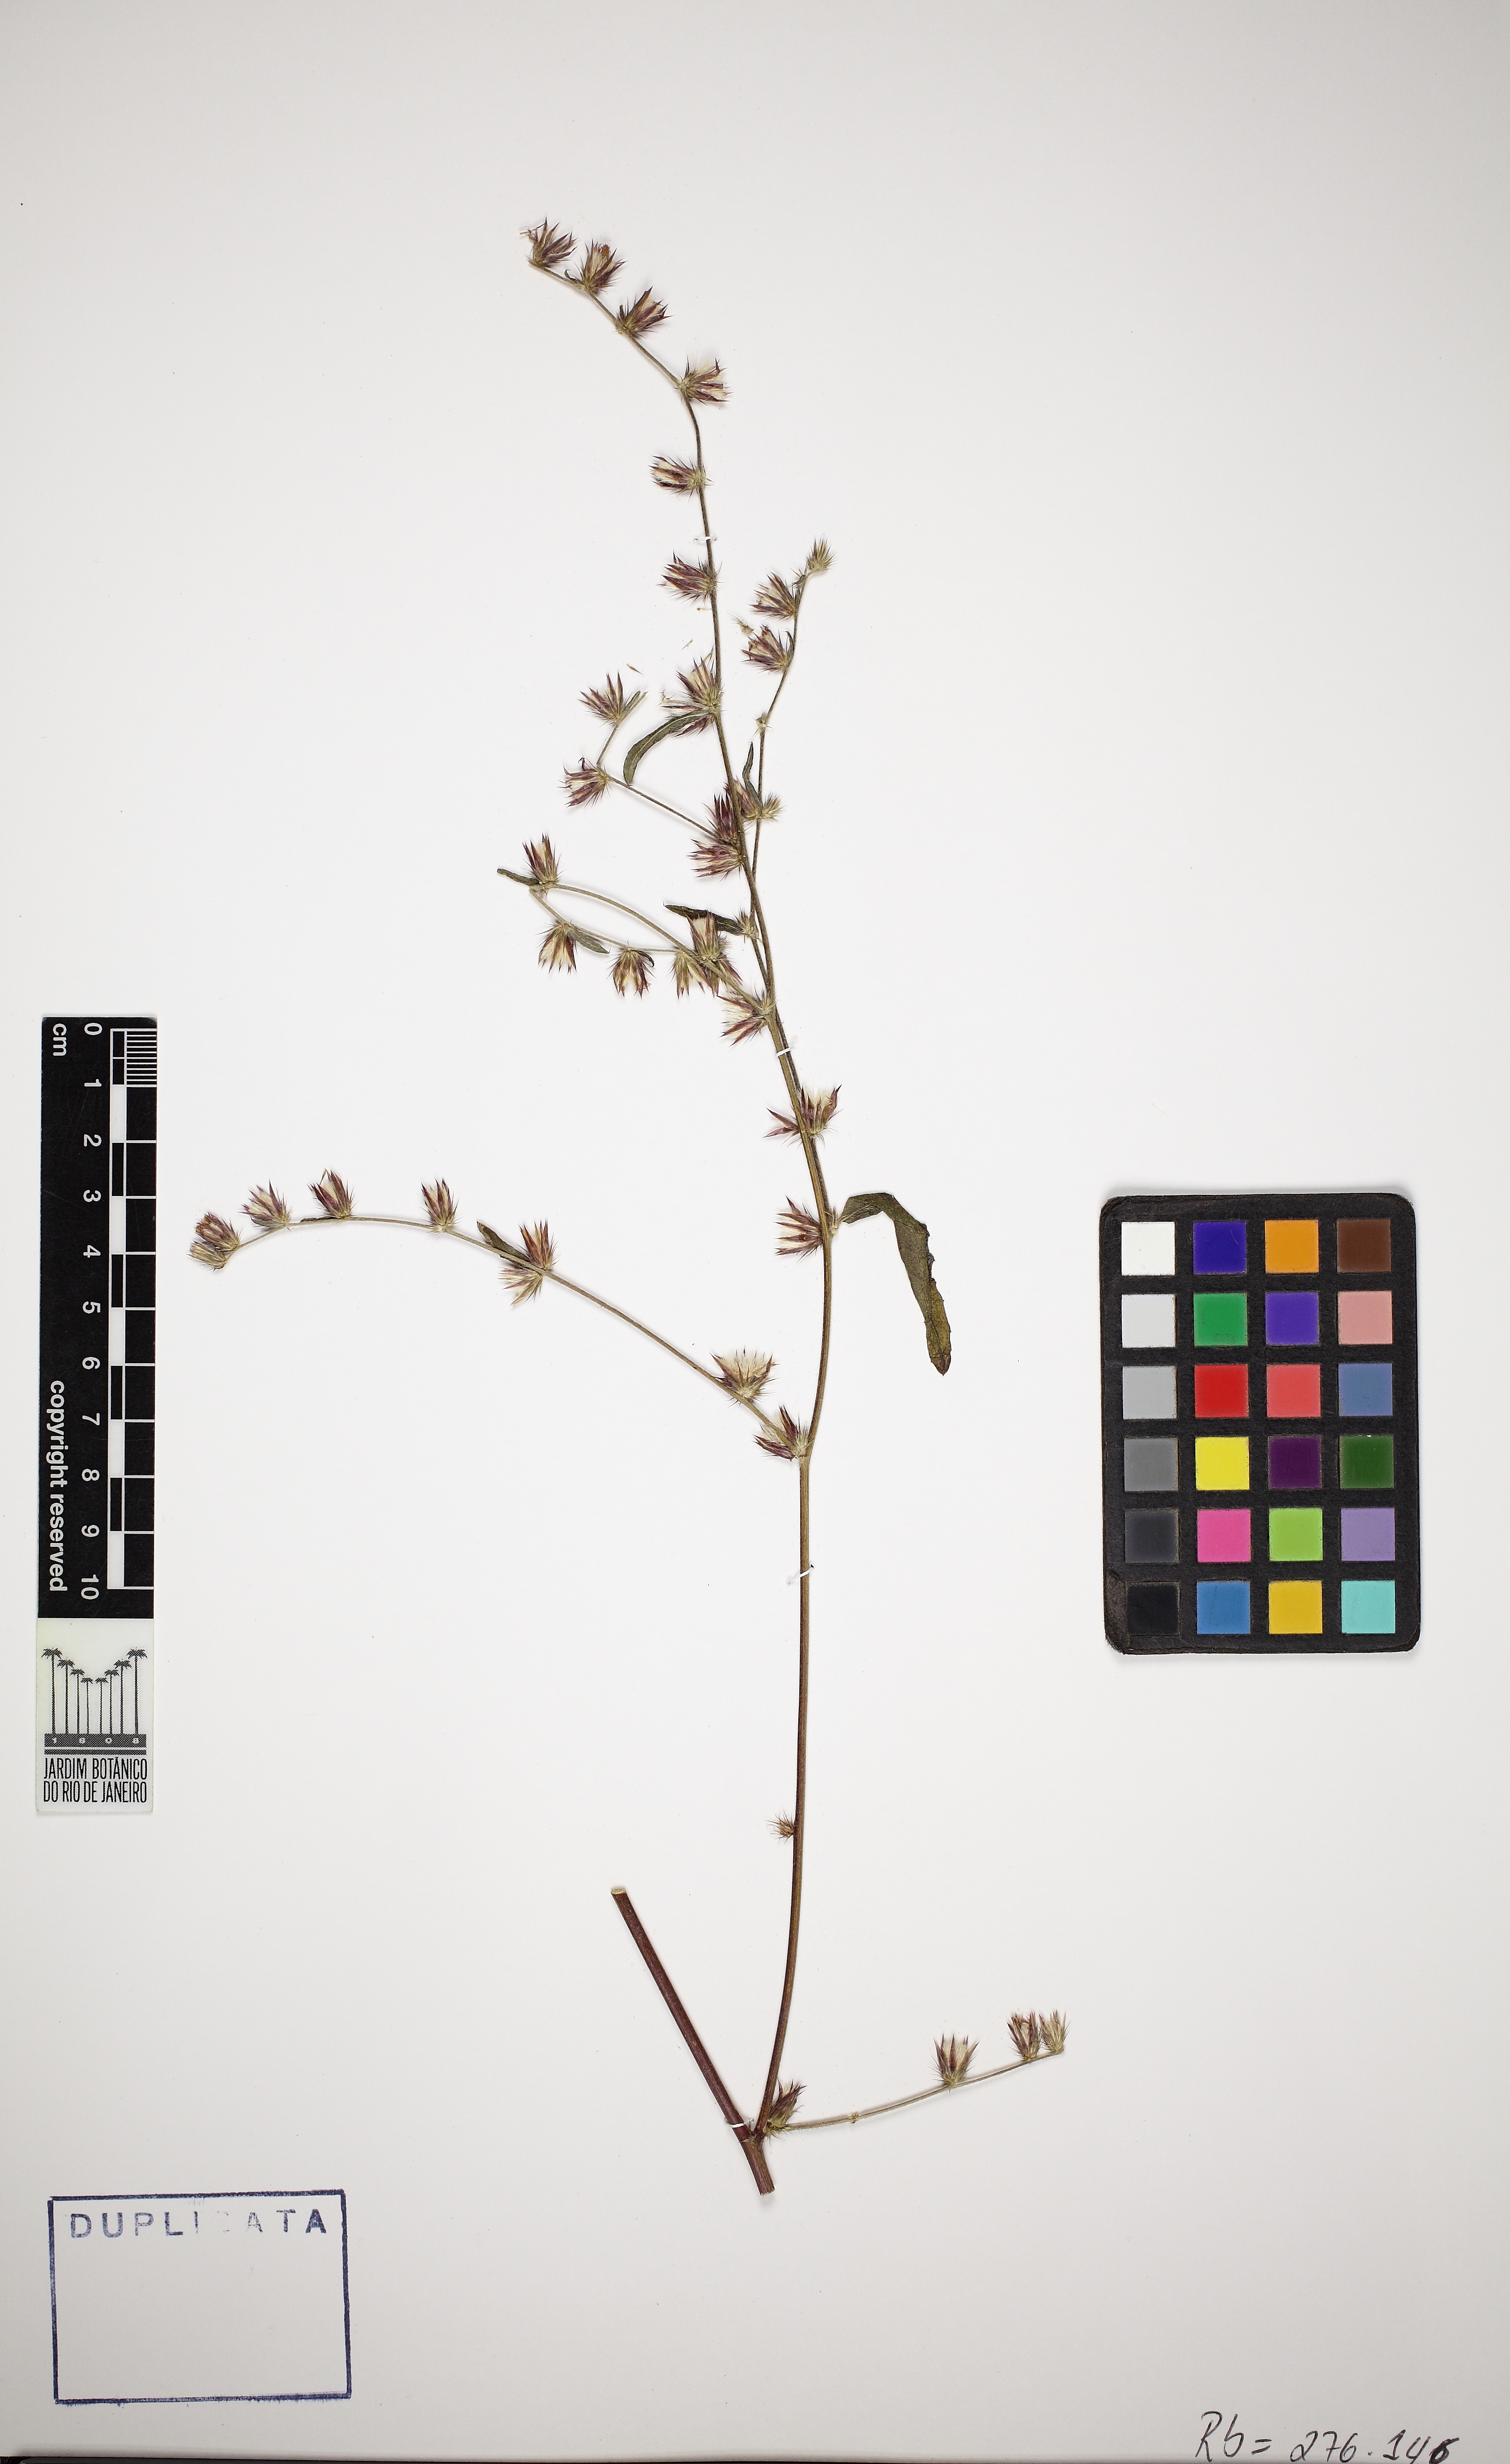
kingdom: Plantae
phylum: Tracheophyta
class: Magnoliopsida
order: Asterales
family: Asteraceae
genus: Lepidaploa
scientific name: Lepidaploa remotiflora
